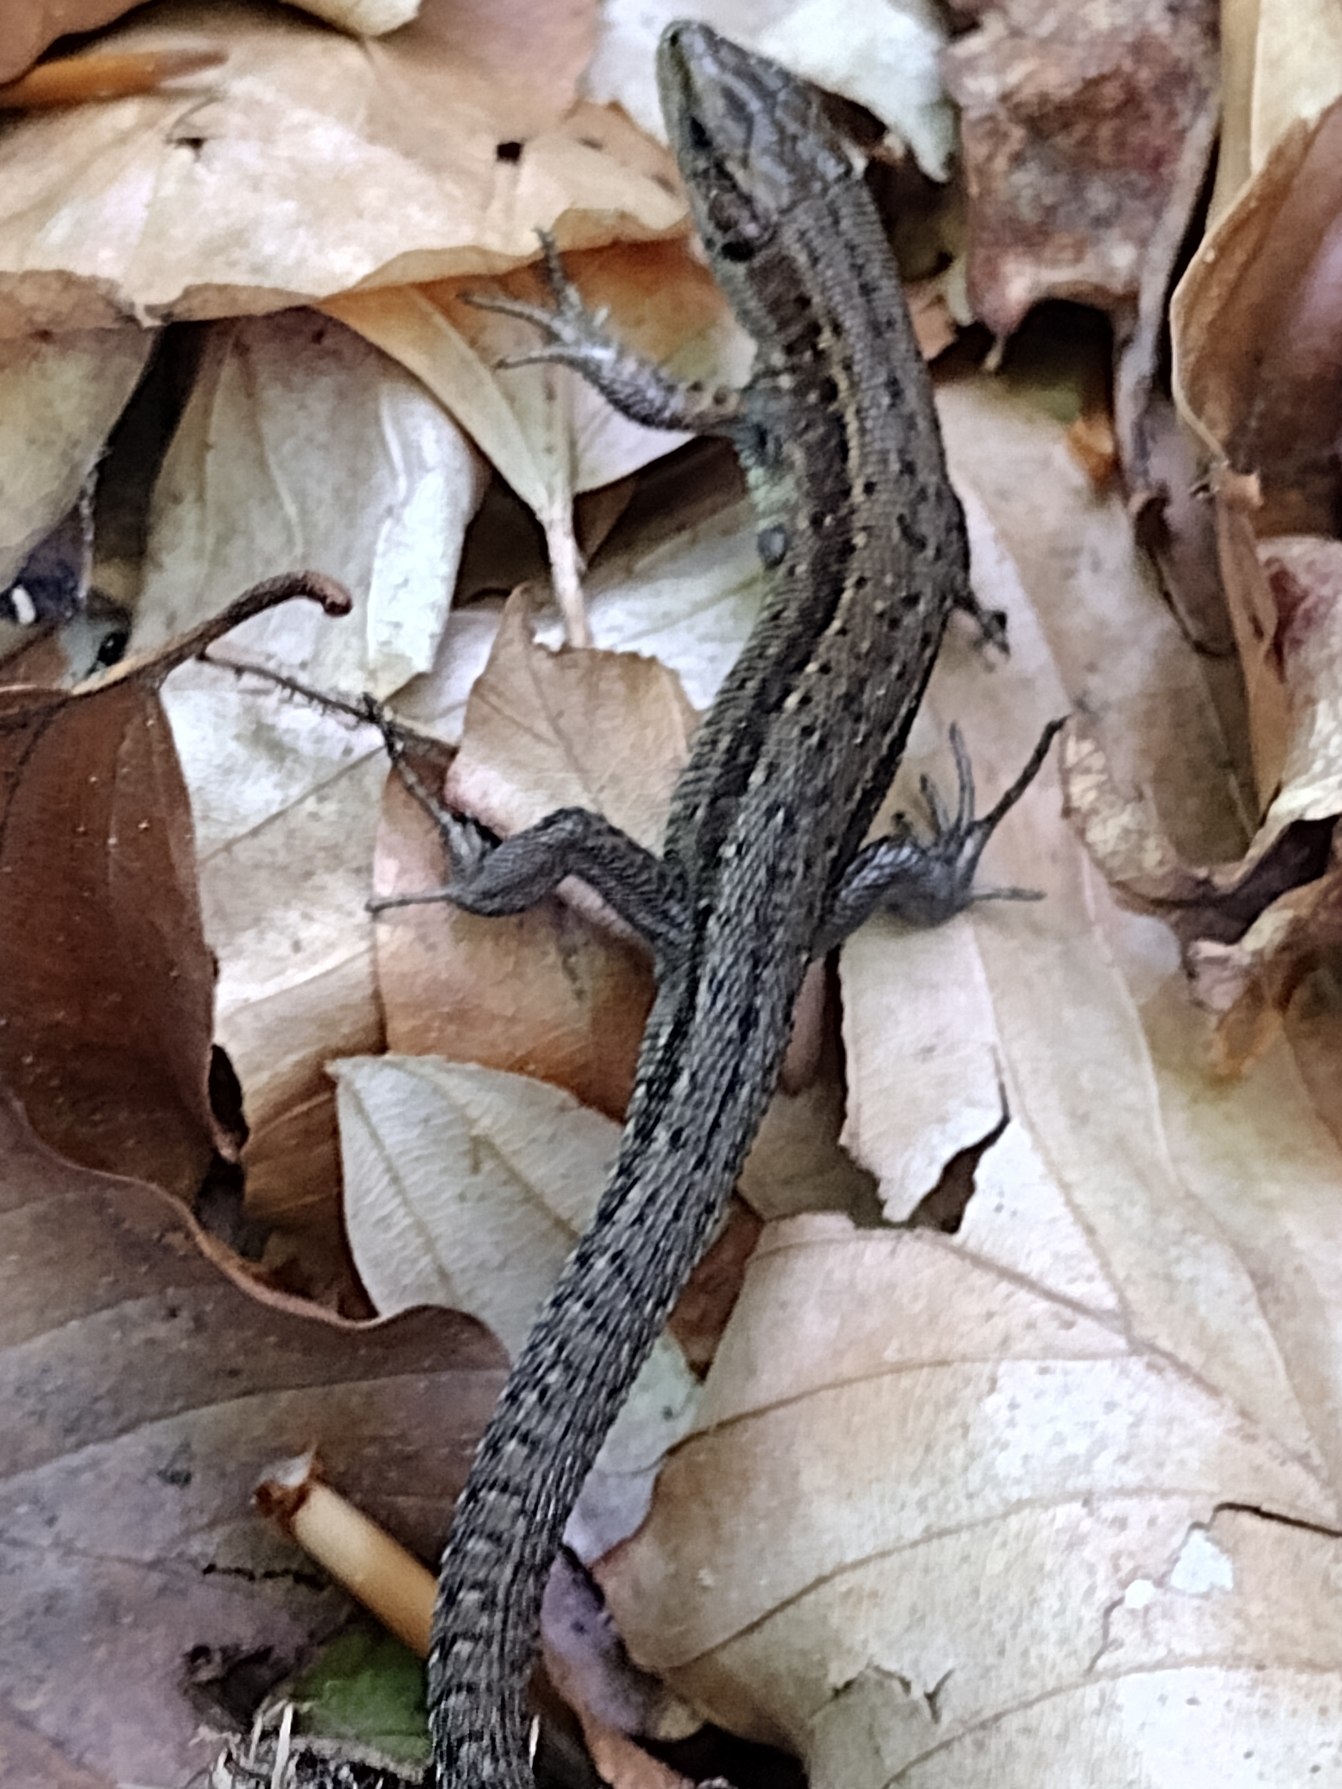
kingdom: Animalia
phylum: Chordata
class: Squamata
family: Lacertidae
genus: Zootoca
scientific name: Zootoca vivipara
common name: Skovfirben
